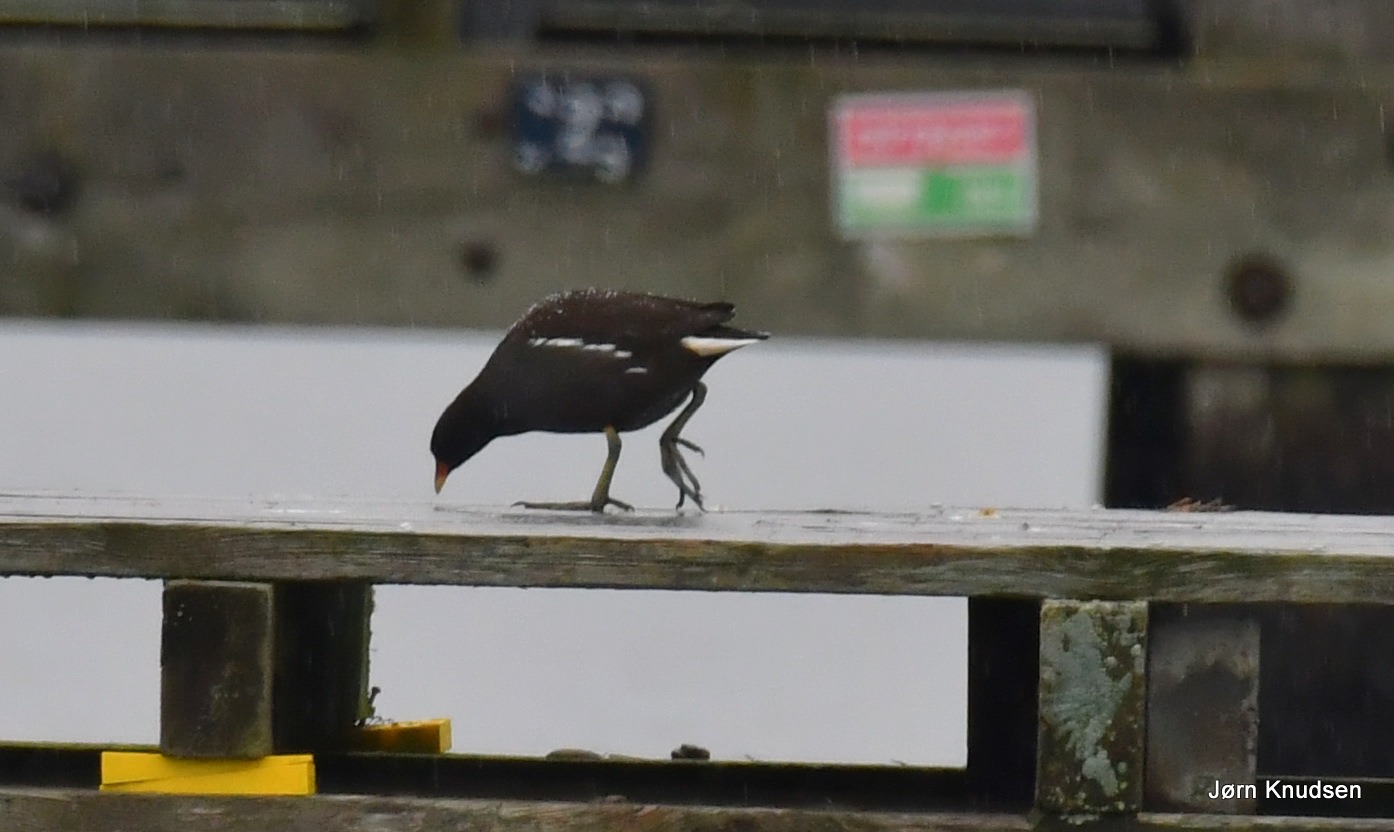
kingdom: Animalia
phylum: Chordata
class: Aves
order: Gruiformes
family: Rallidae
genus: Gallinula
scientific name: Gallinula chloropus
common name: Grønbenet rørhøne
